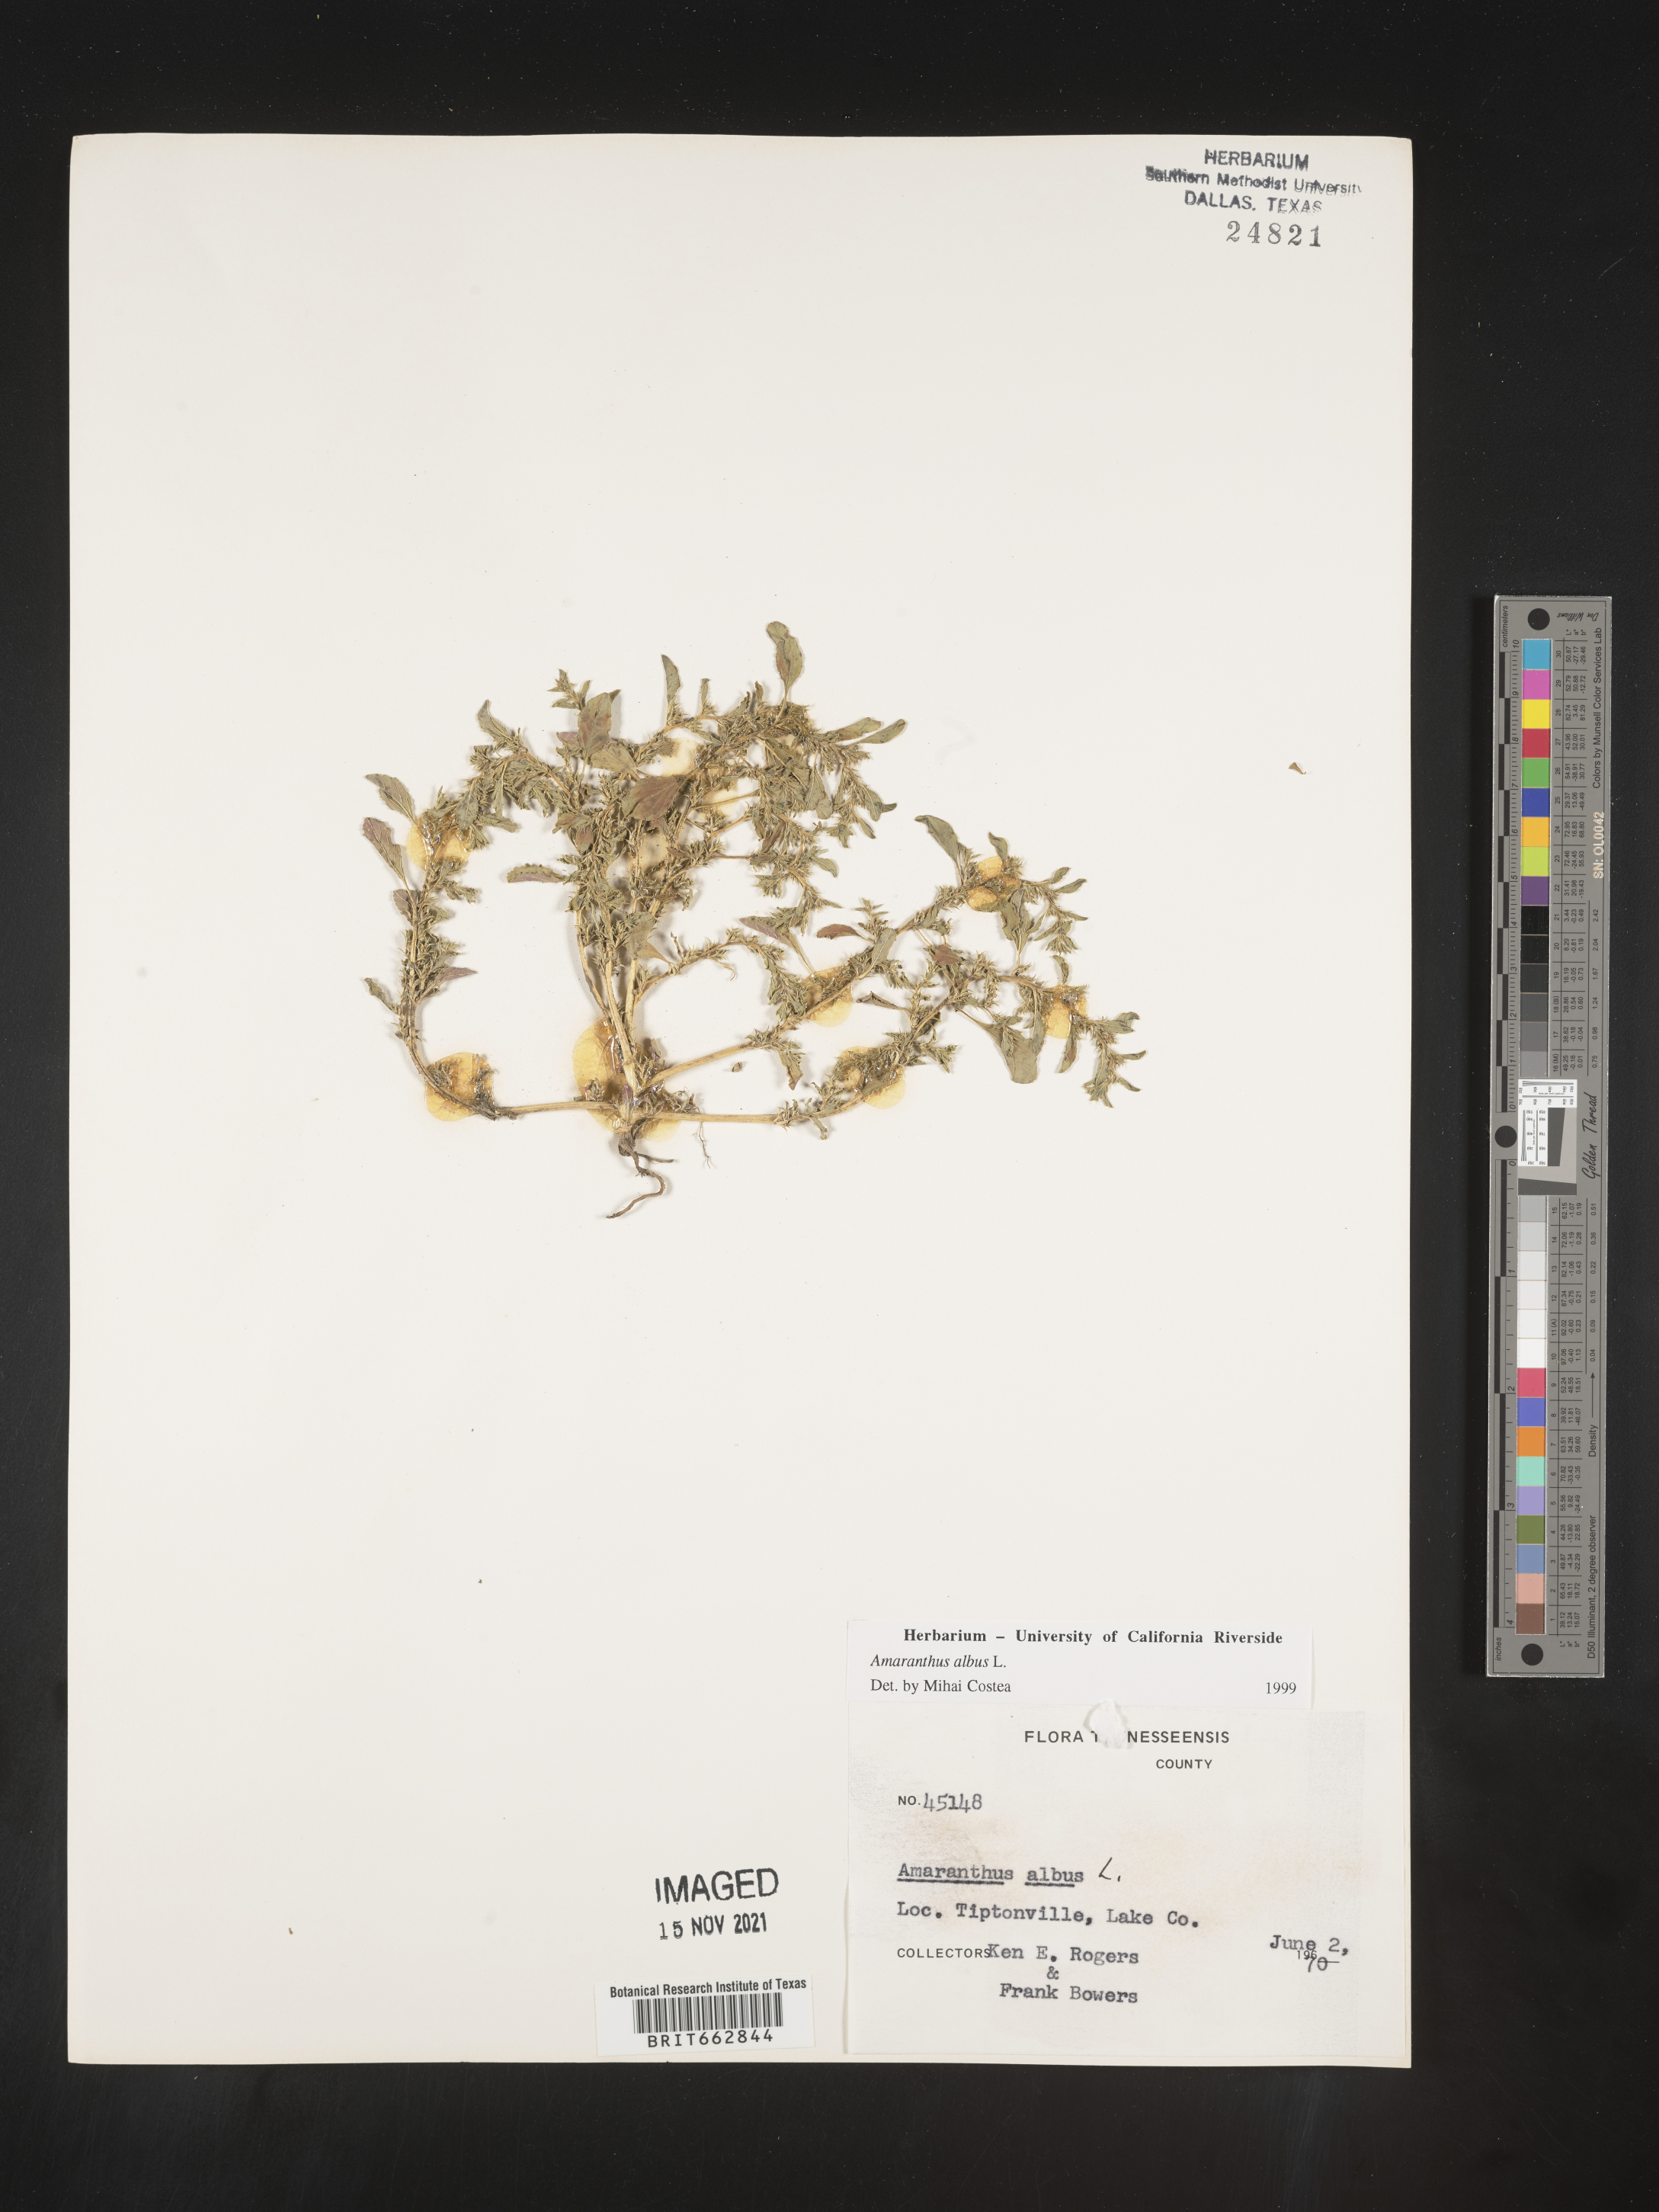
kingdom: Plantae
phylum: Tracheophyta
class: Magnoliopsida
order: Caryophyllales
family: Amaranthaceae
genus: Amaranthus
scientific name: Amaranthus albus
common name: White pigweed
